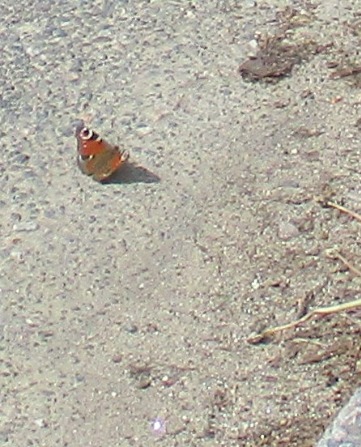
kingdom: Animalia
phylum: Arthropoda
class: Insecta
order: Lepidoptera
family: Nymphalidae
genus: Aglais
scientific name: Aglais io
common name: Dagpåfugleøje
